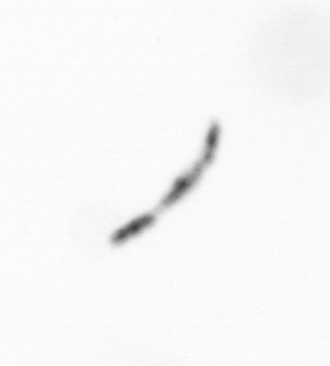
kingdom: Chromista
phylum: Ochrophyta
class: Bacillariophyceae
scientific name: Bacillariophyceae
